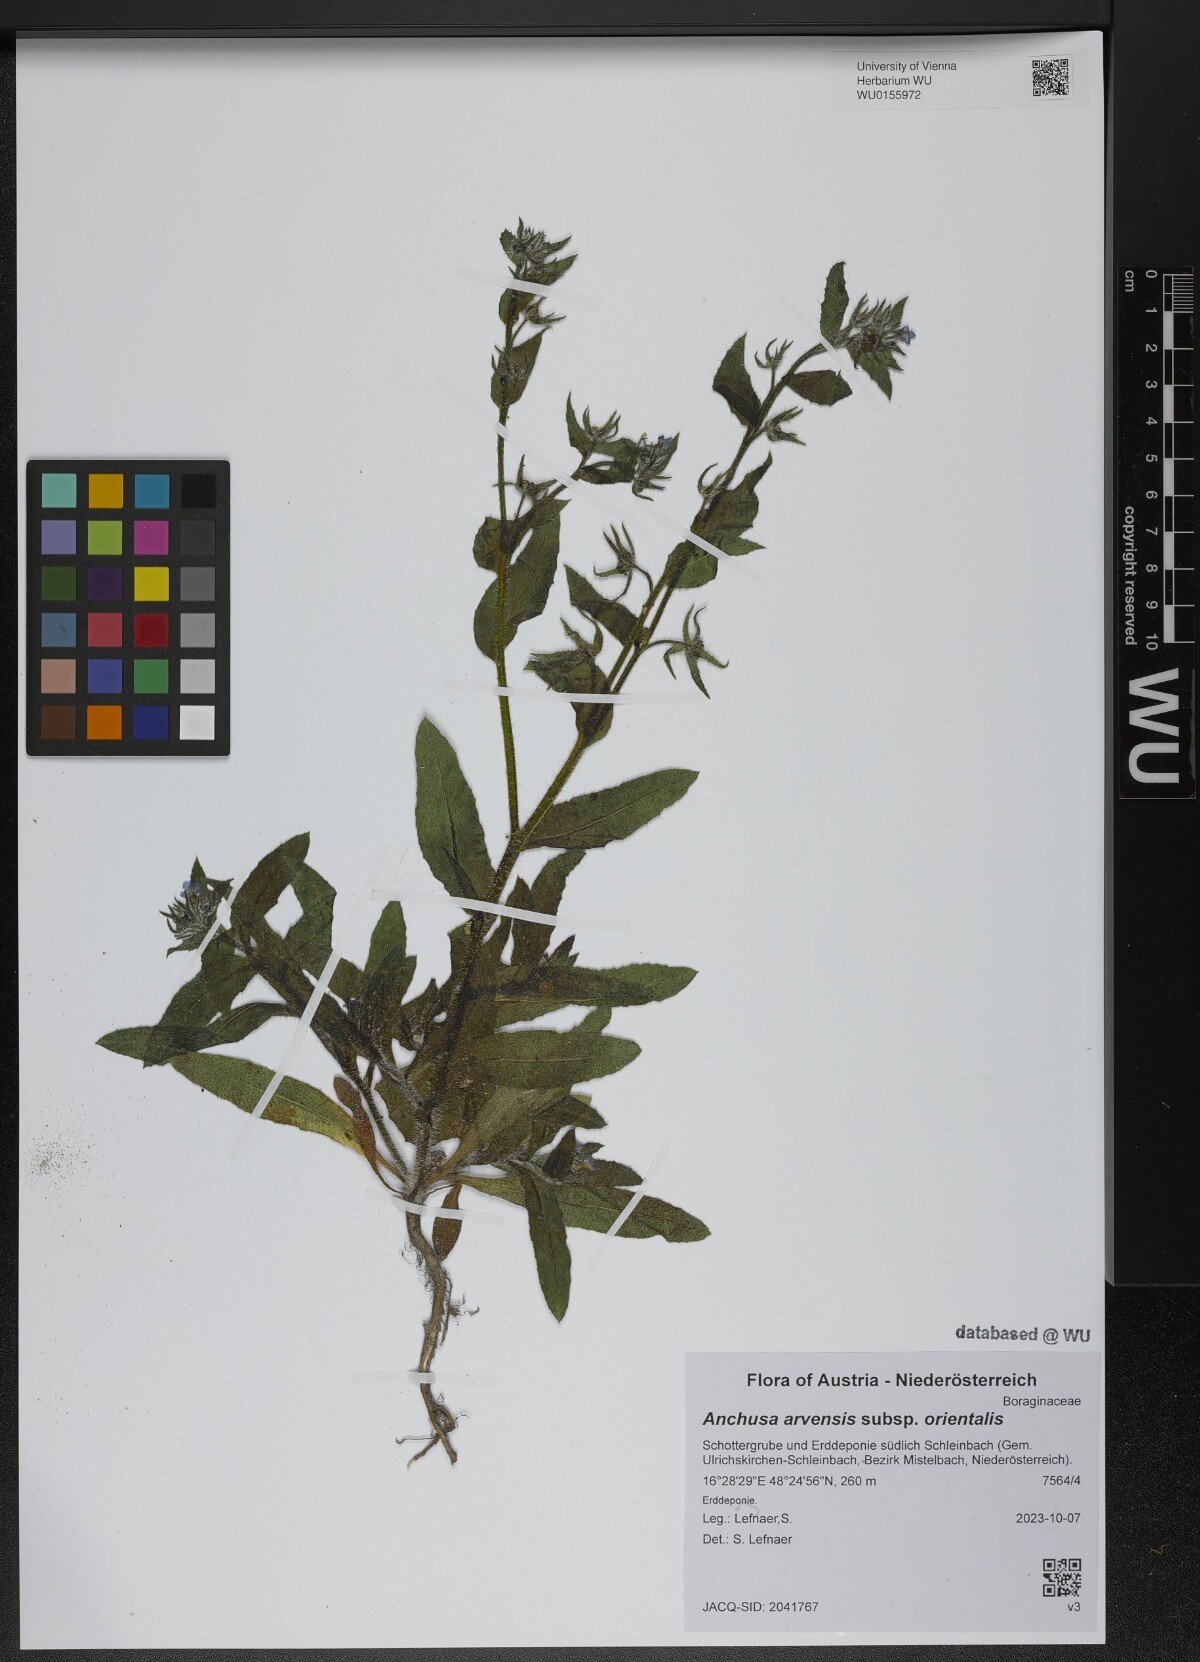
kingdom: Plantae
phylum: Tracheophyta
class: Magnoliopsida
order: Boraginales
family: Boraginaceae
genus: Lycopsis
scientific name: Lycopsis arvensis
